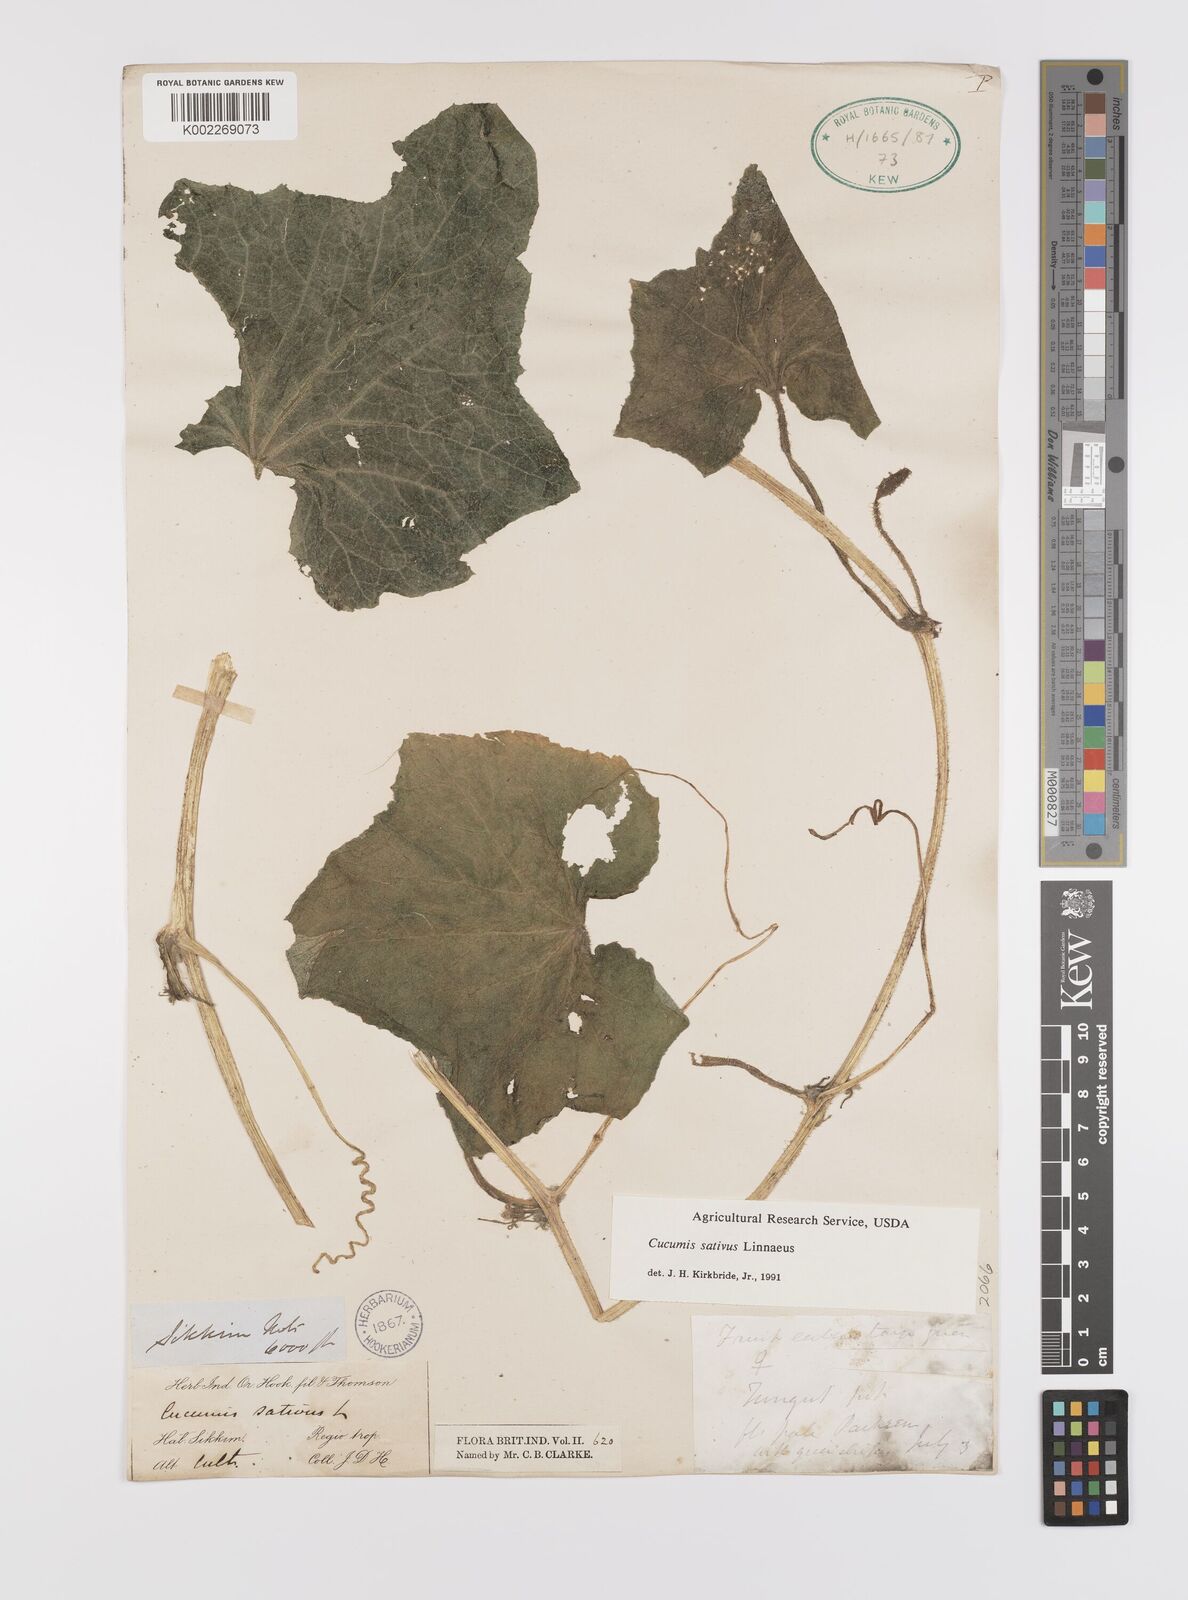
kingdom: Plantae
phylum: Tracheophyta
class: Magnoliopsida
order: Cucurbitales
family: Cucurbitaceae
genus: Cucumis
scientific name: Cucumis sativus
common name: Cucumber
